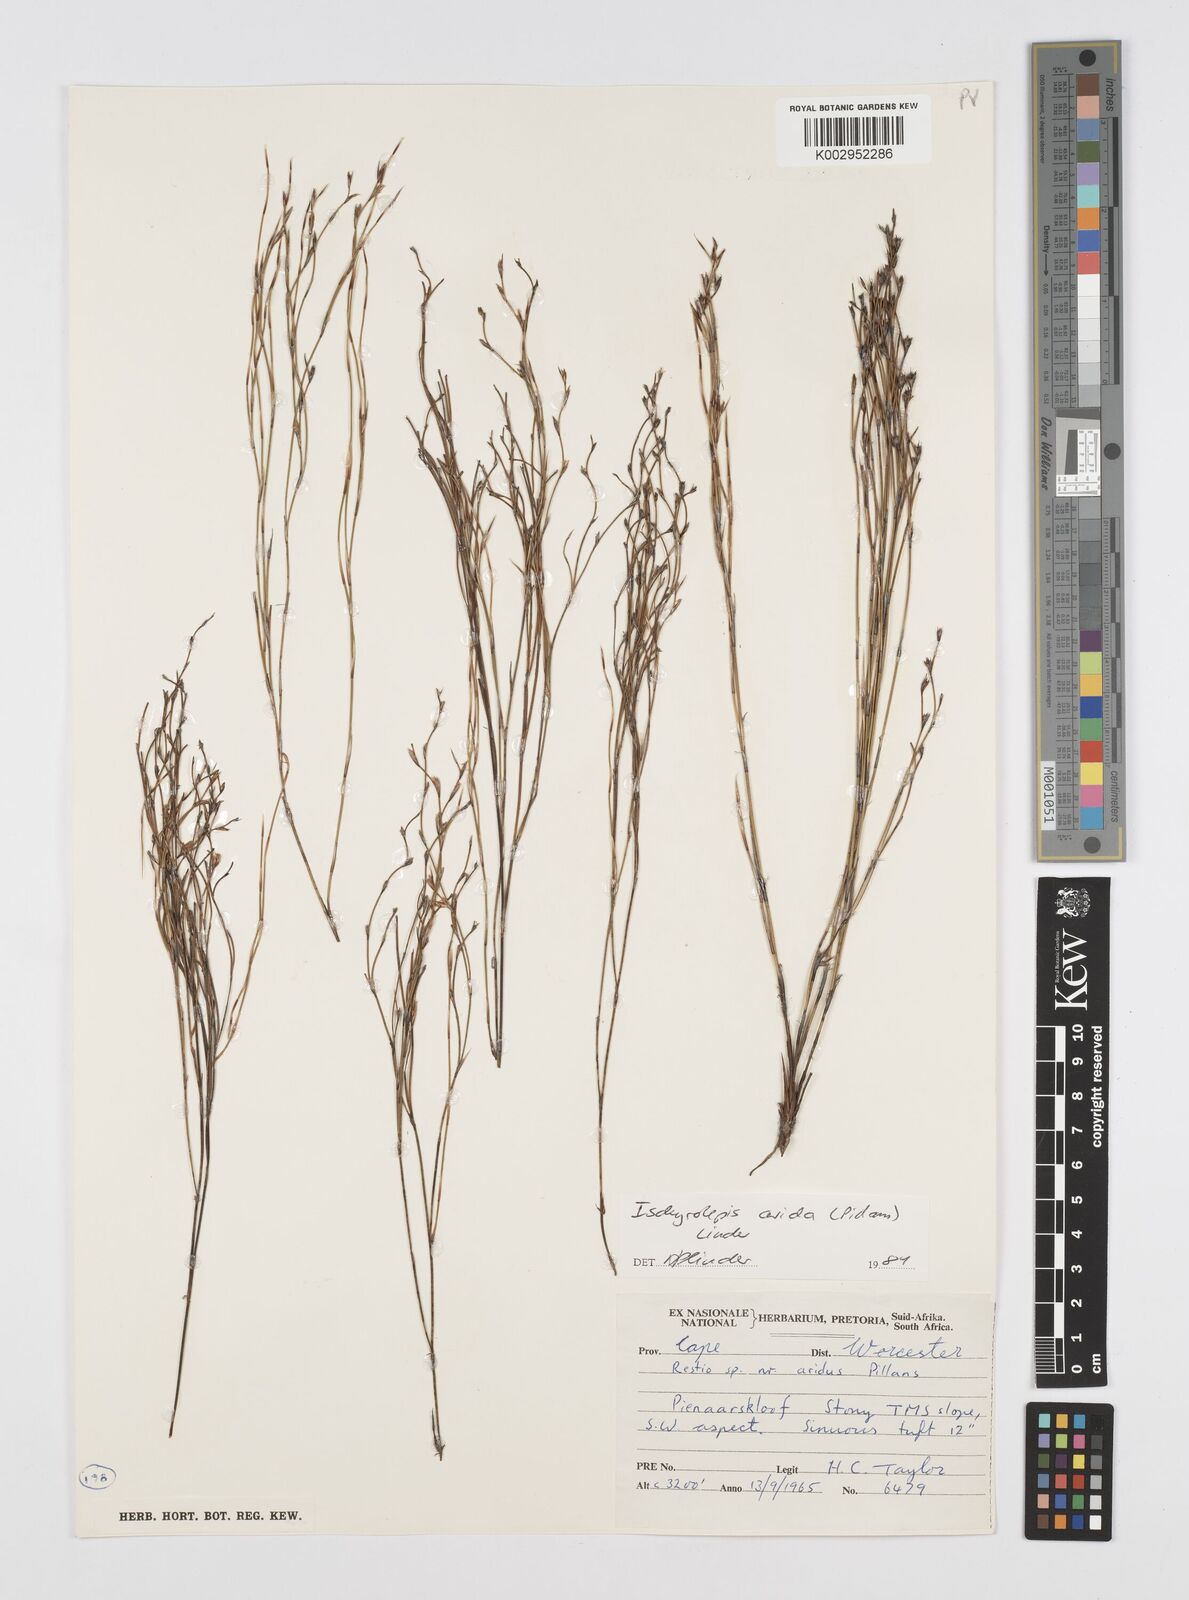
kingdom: Plantae
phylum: Tracheophyta
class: Liliopsida
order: Poales
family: Restionaceae
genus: Restio
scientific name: Restio aridus
